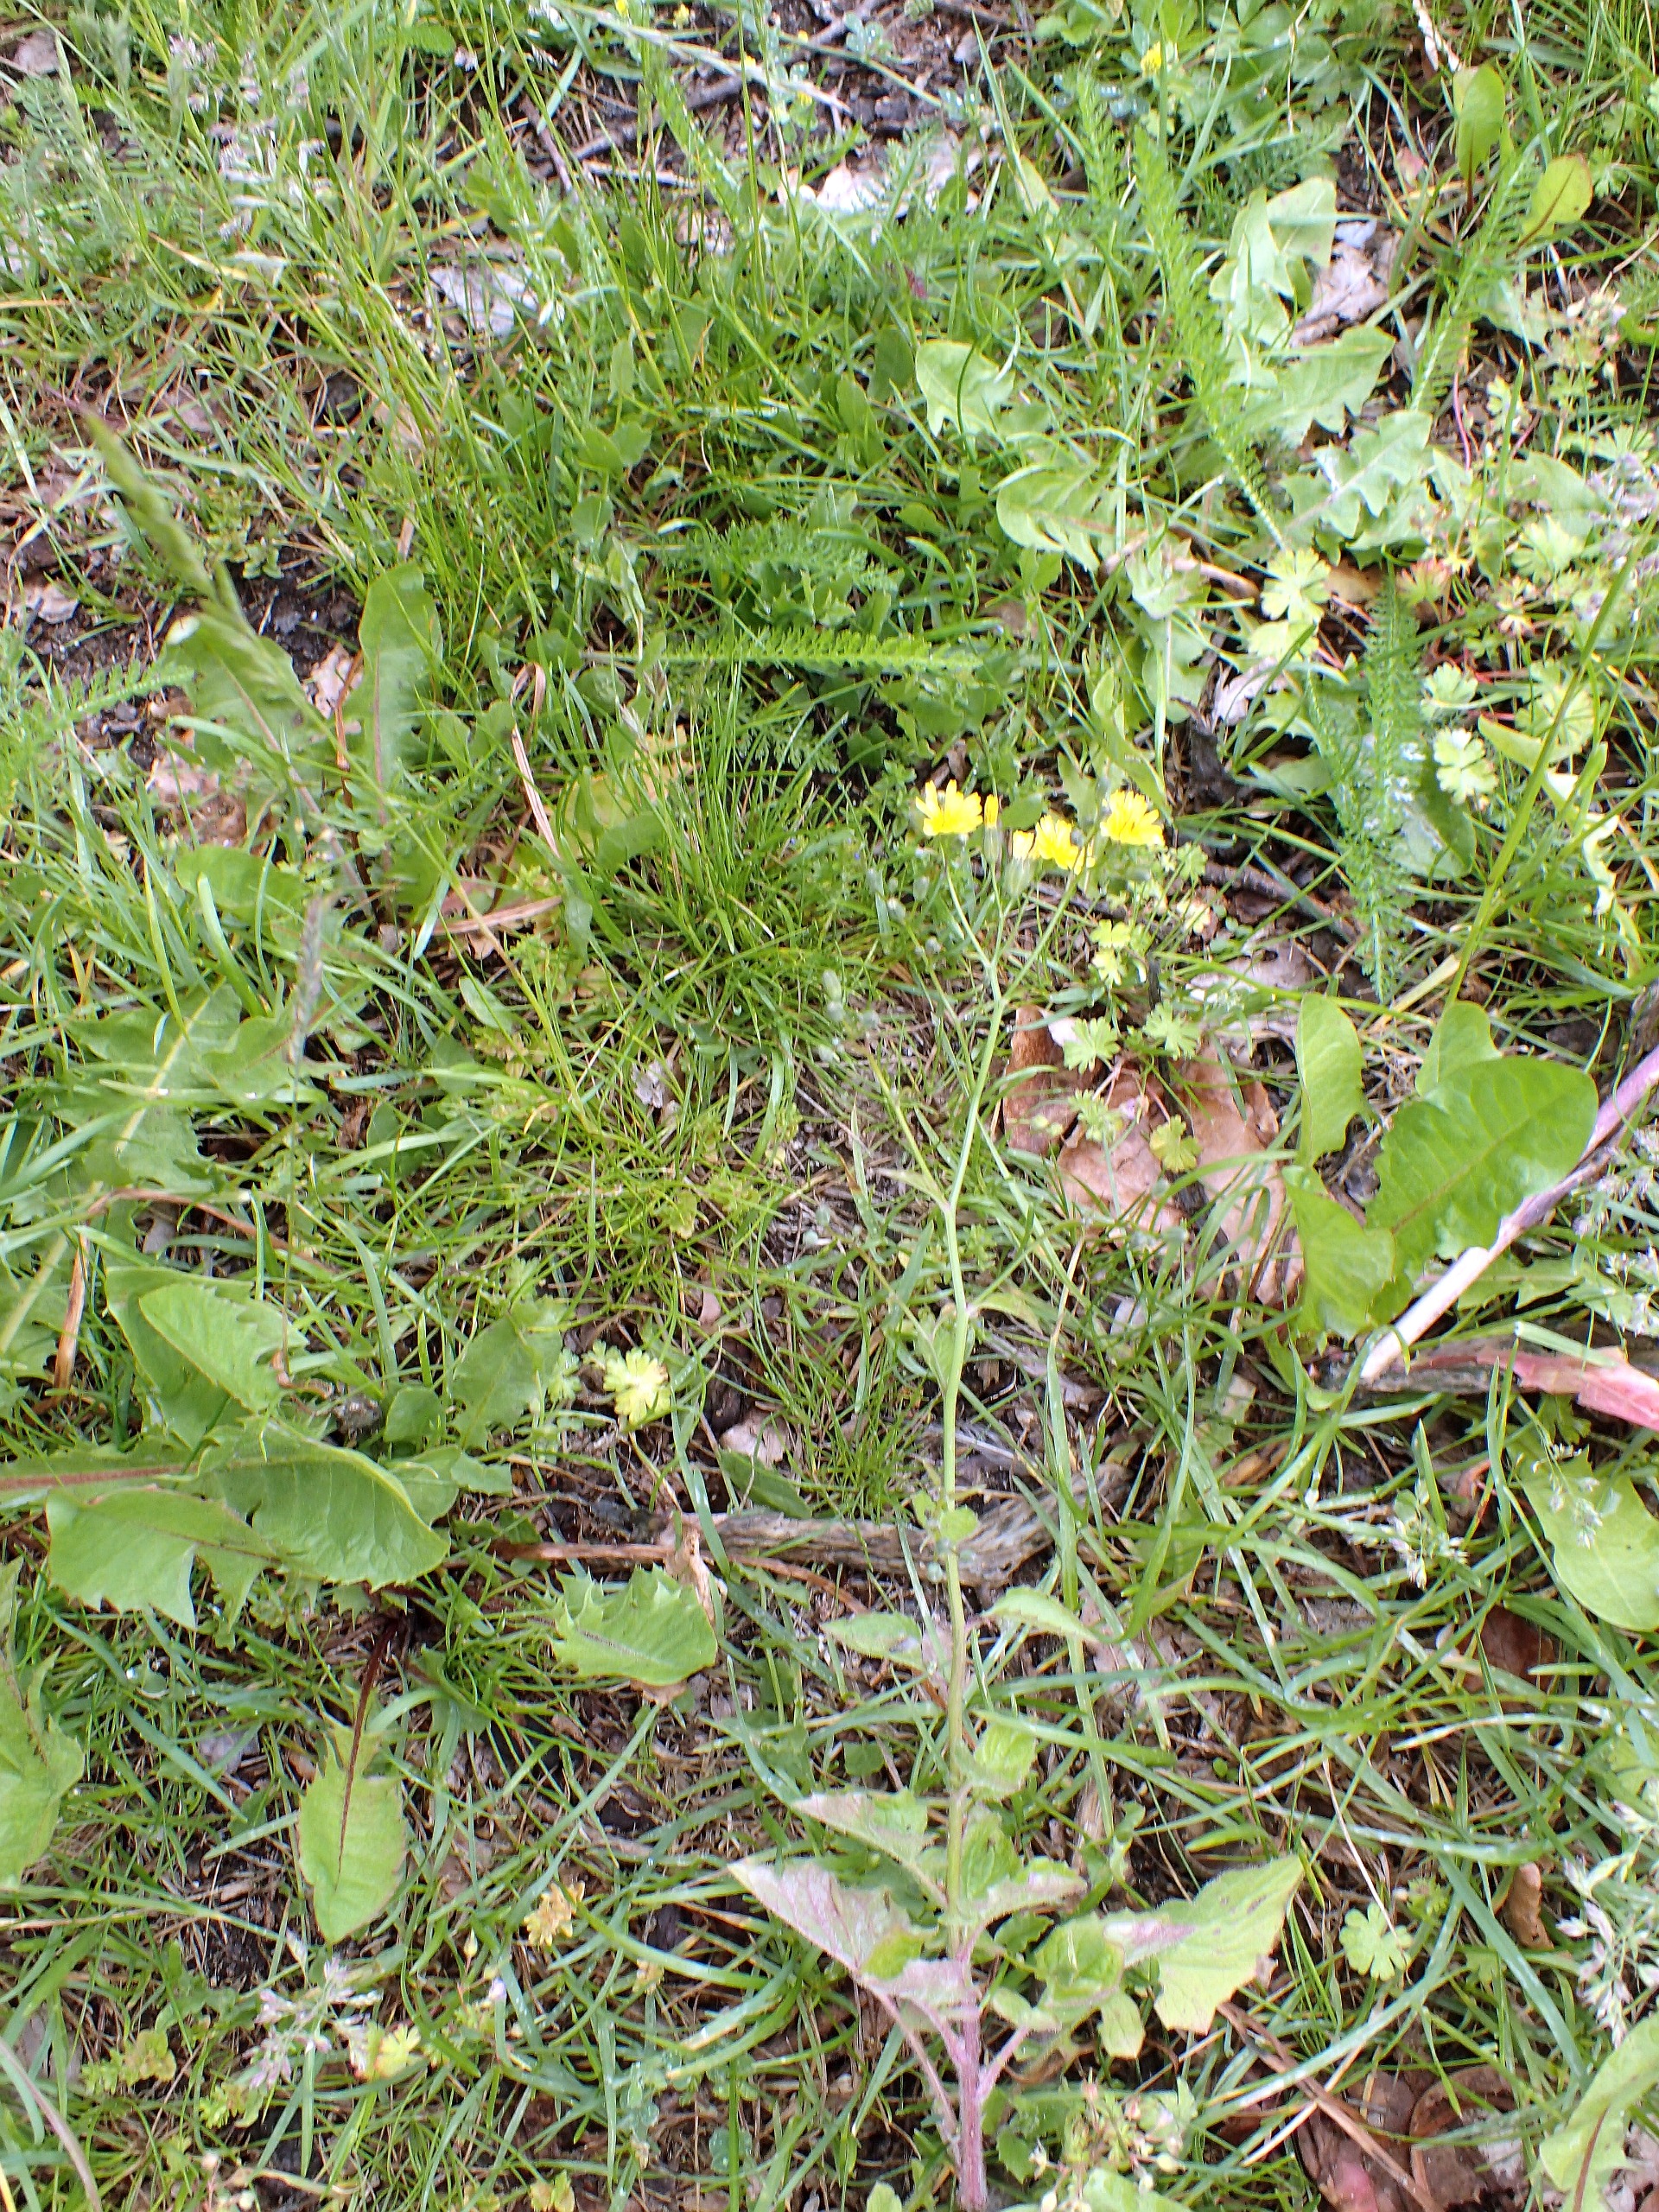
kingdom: Plantae
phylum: Tracheophyta
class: Magnoliopsida
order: Asterales
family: Asteraceae
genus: Lapsana
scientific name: Lapsana communis
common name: Haremad
